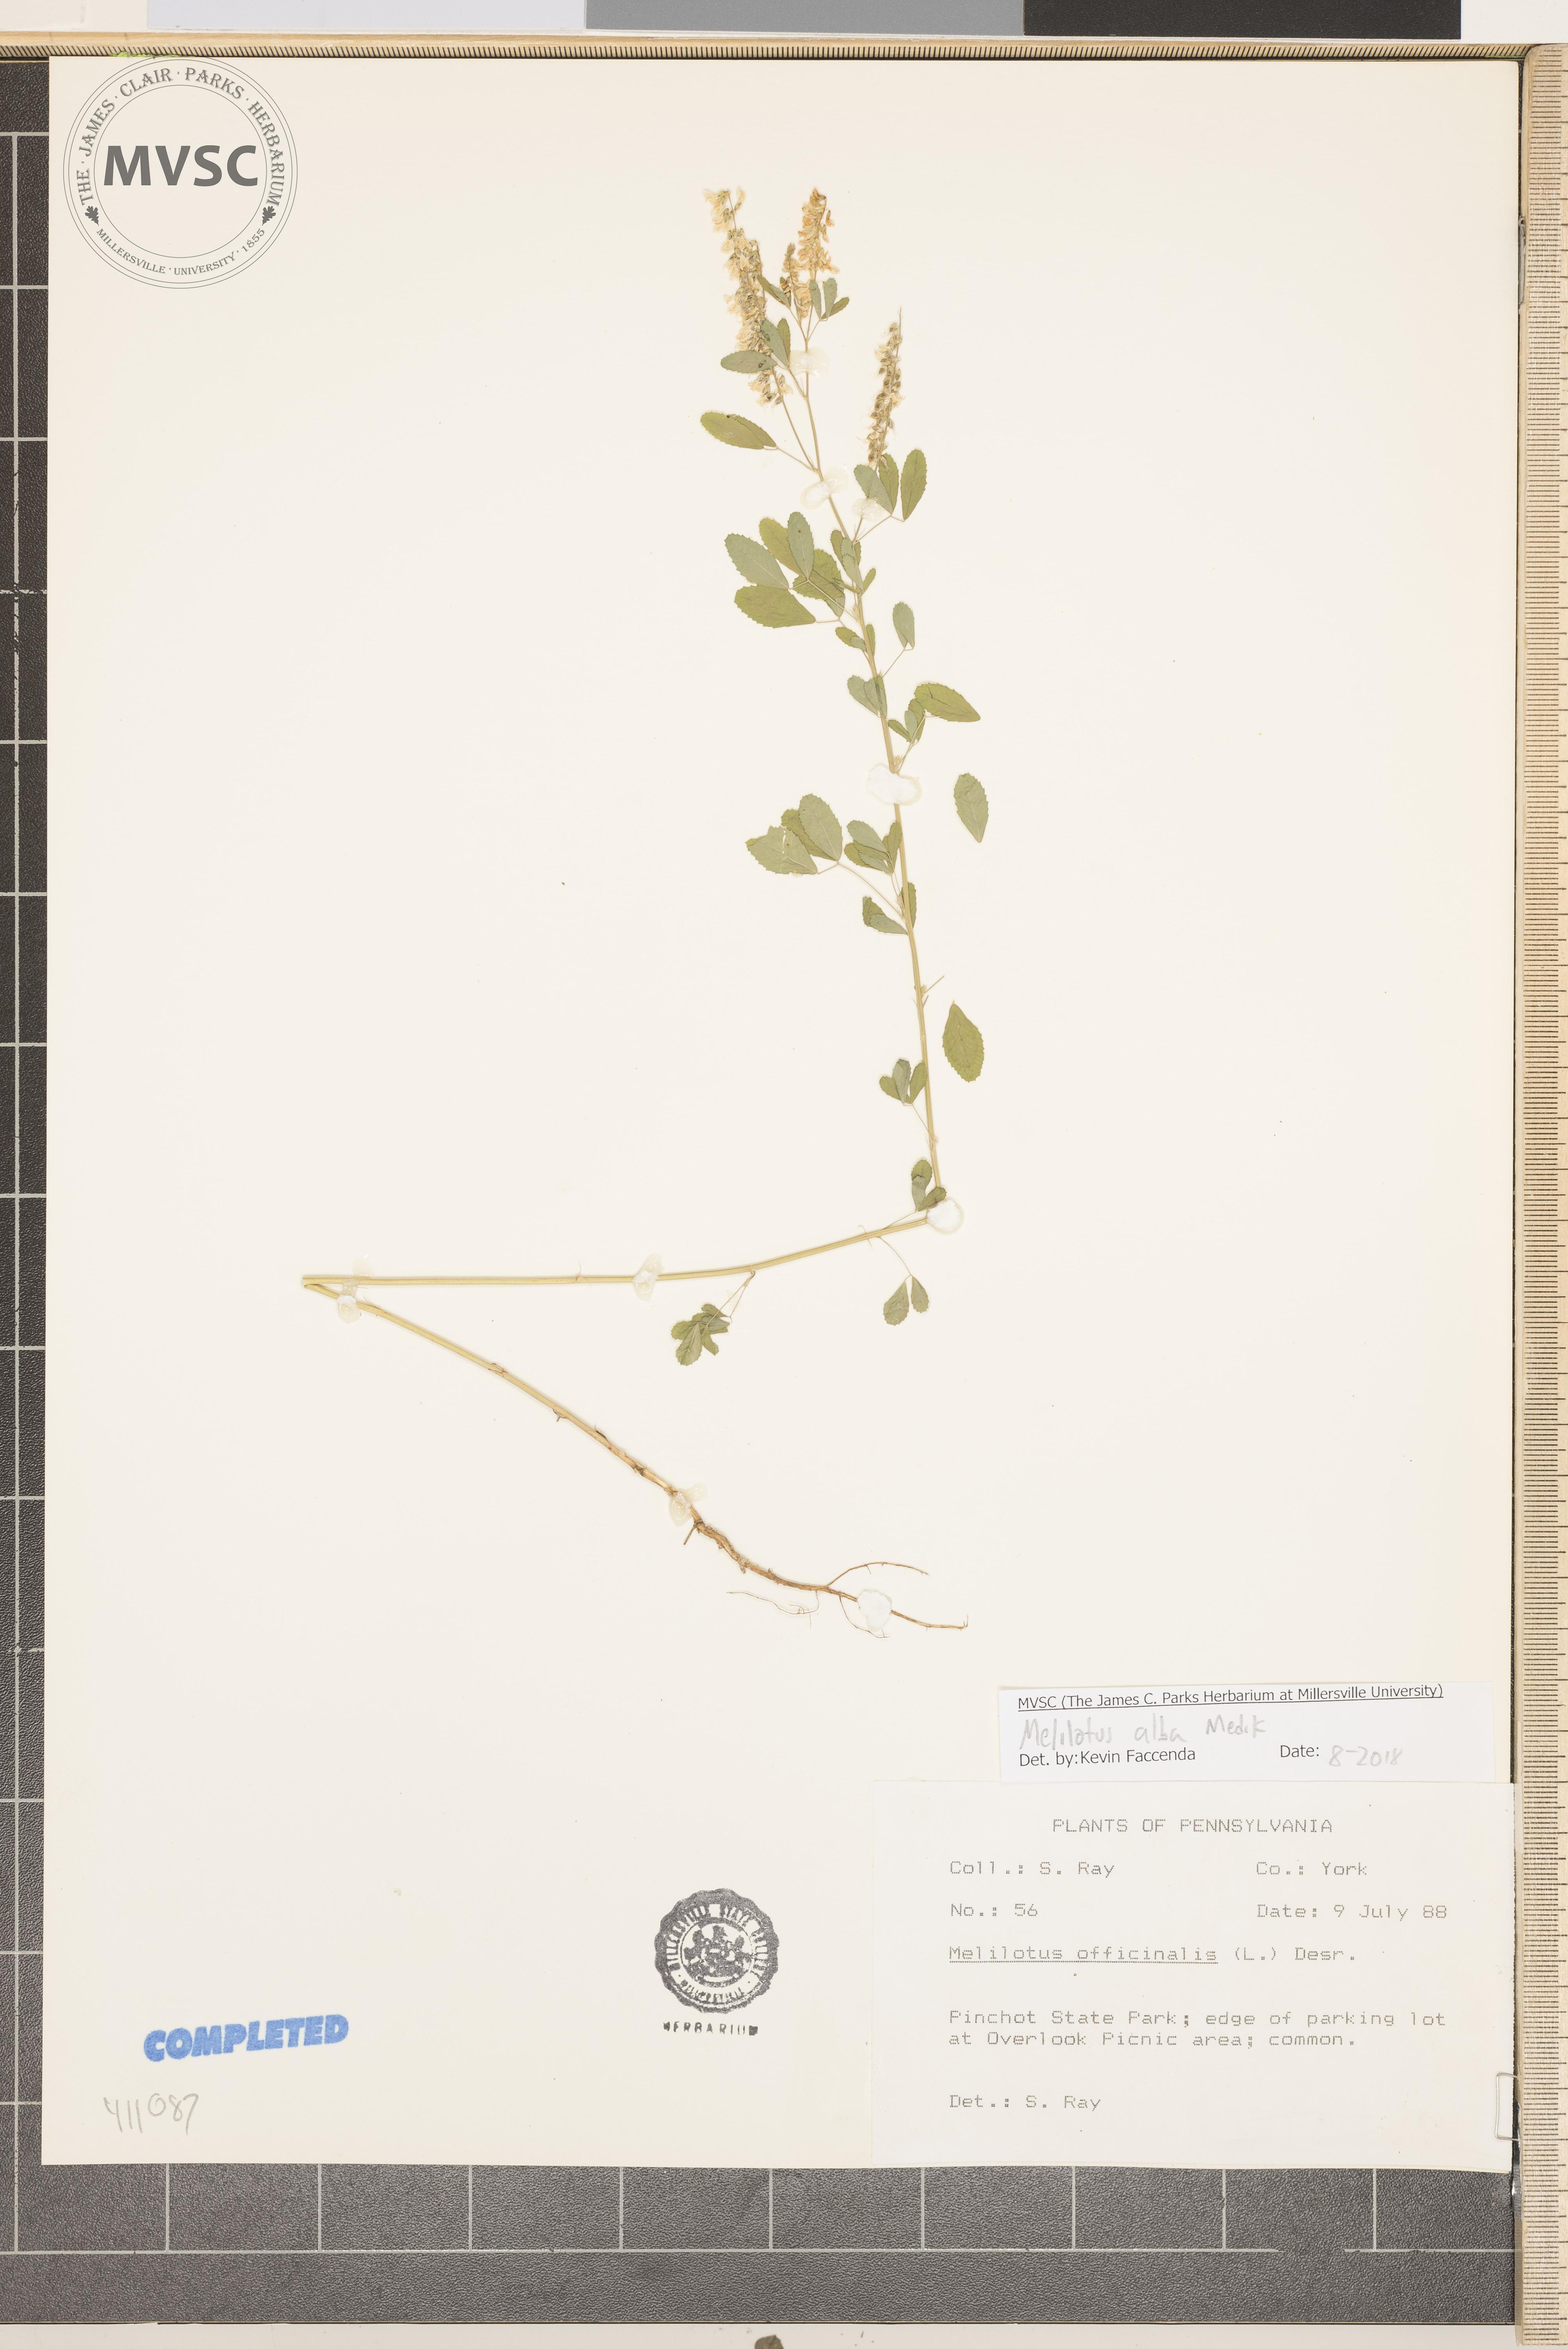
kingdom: Plantae
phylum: Tracheophyta
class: Magnoliopsida
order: Fabales
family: Fabaceae
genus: Melilotus
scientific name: Melilotus albus
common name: White melilot
